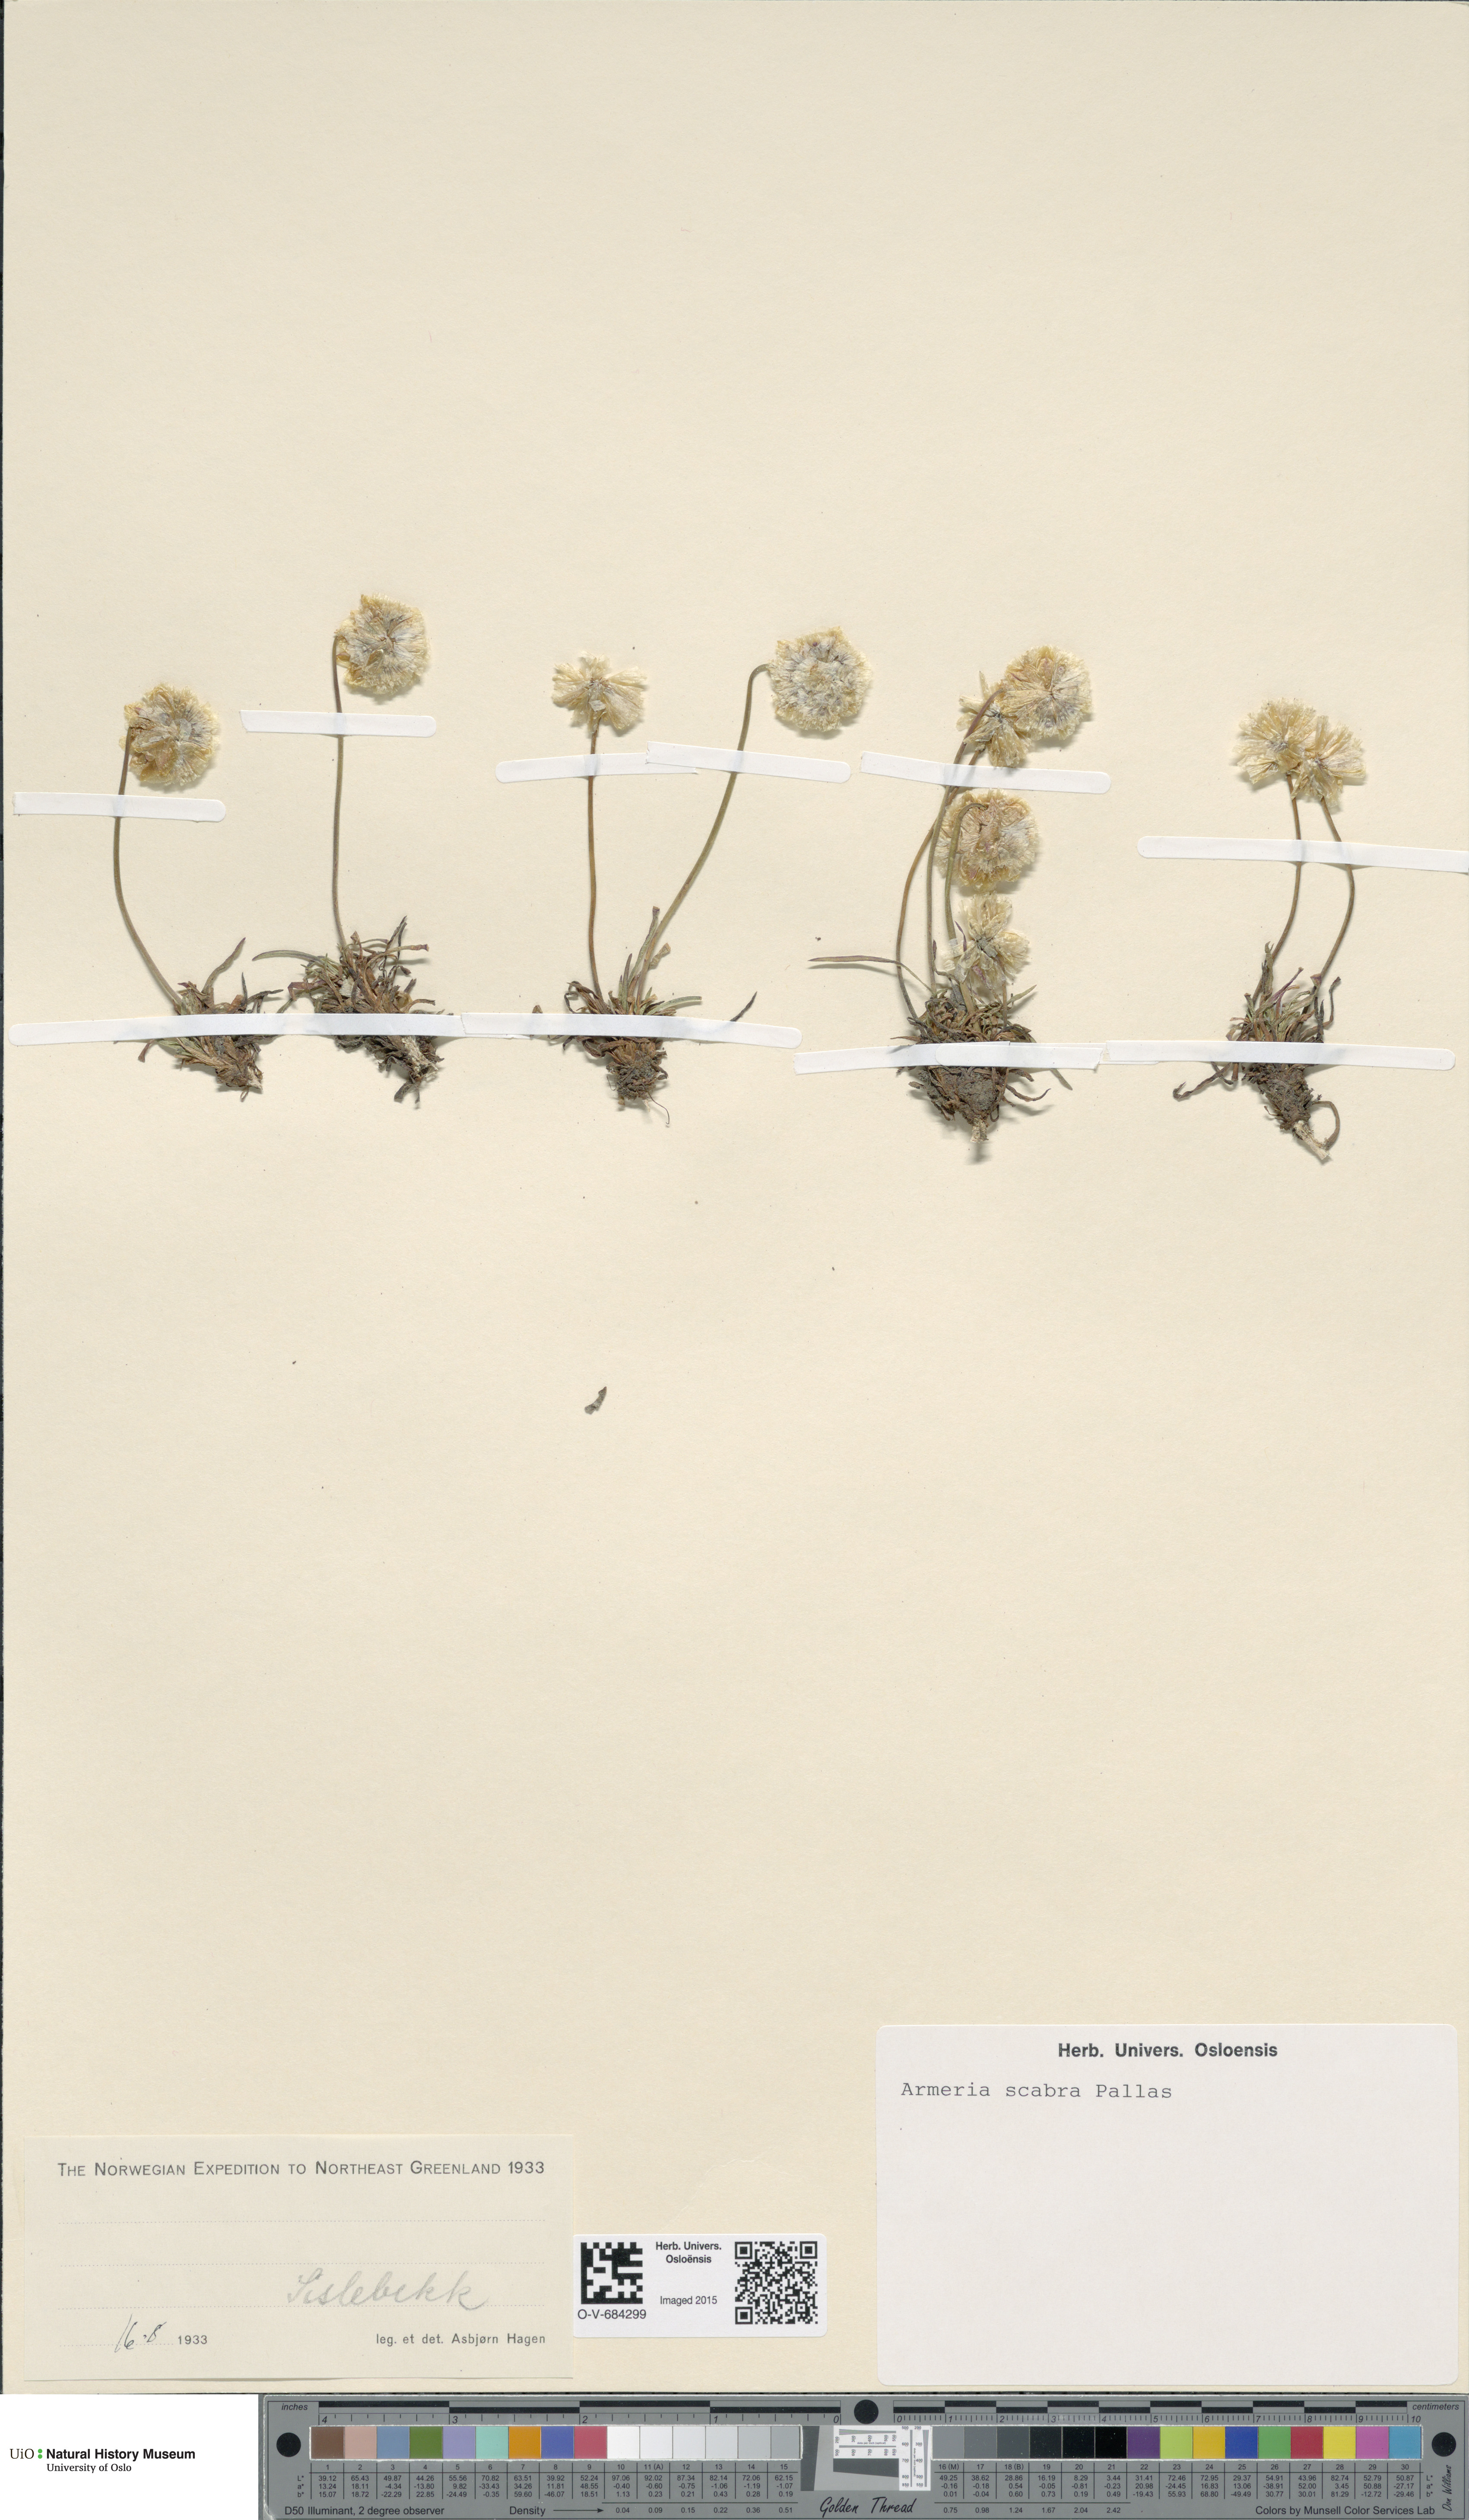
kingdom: Plantae
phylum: Tracheophyta
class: Magnoliopsida
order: Caryophyllales
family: Plumbaginaceae
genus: Armeria
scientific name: Armeria maritima
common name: Thrift
